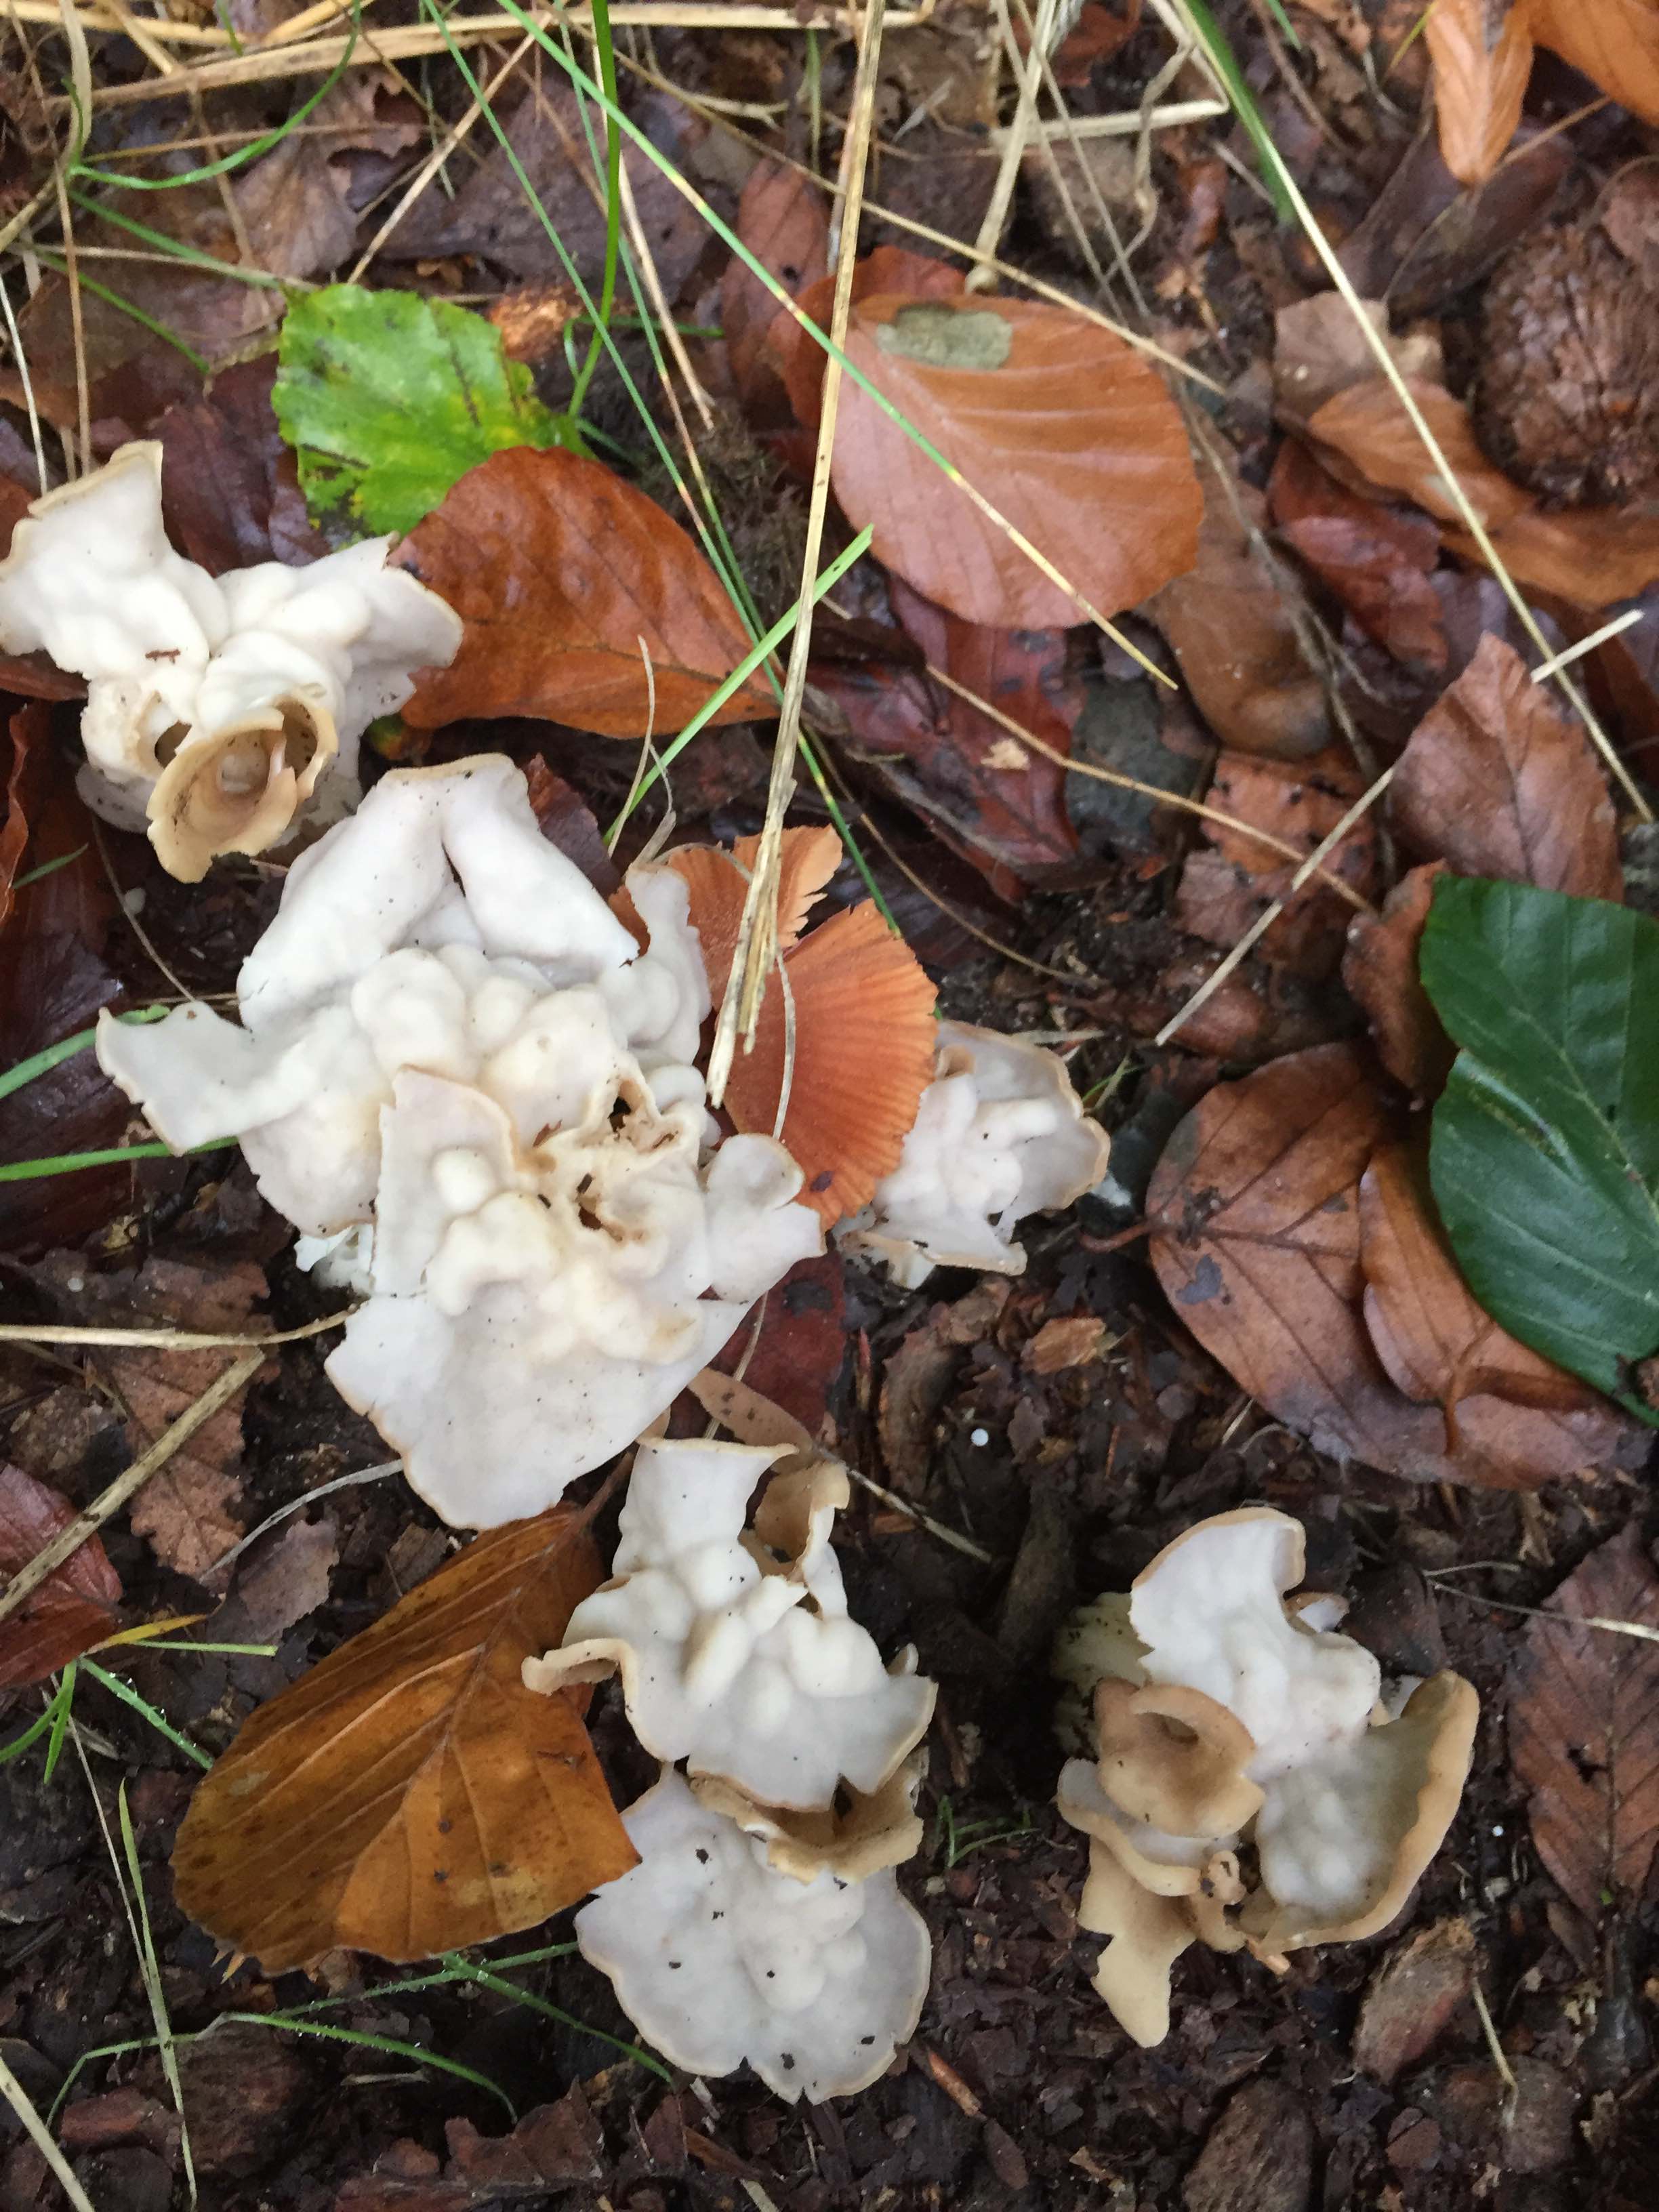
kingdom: Fungi
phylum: Ascomycota
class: Pezizomycetes
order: Pezizales
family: Helvellaceae
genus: Helvella
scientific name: Helvella crispa
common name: kruset foldhat
